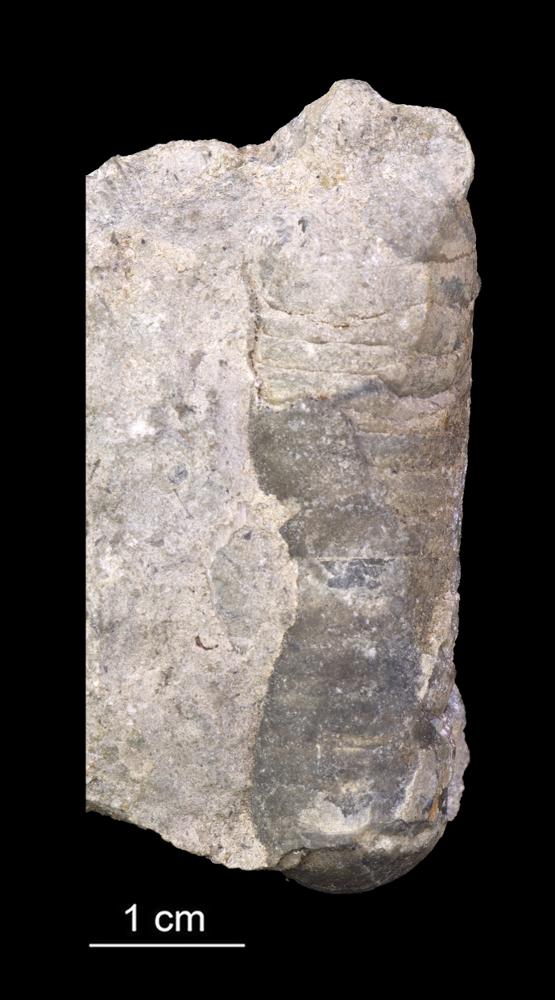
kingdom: Animalia
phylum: Mollusca
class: Cephalopoda
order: Orthocerida
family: Orthoceratidae
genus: Orthoceras
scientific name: Orthoceras
